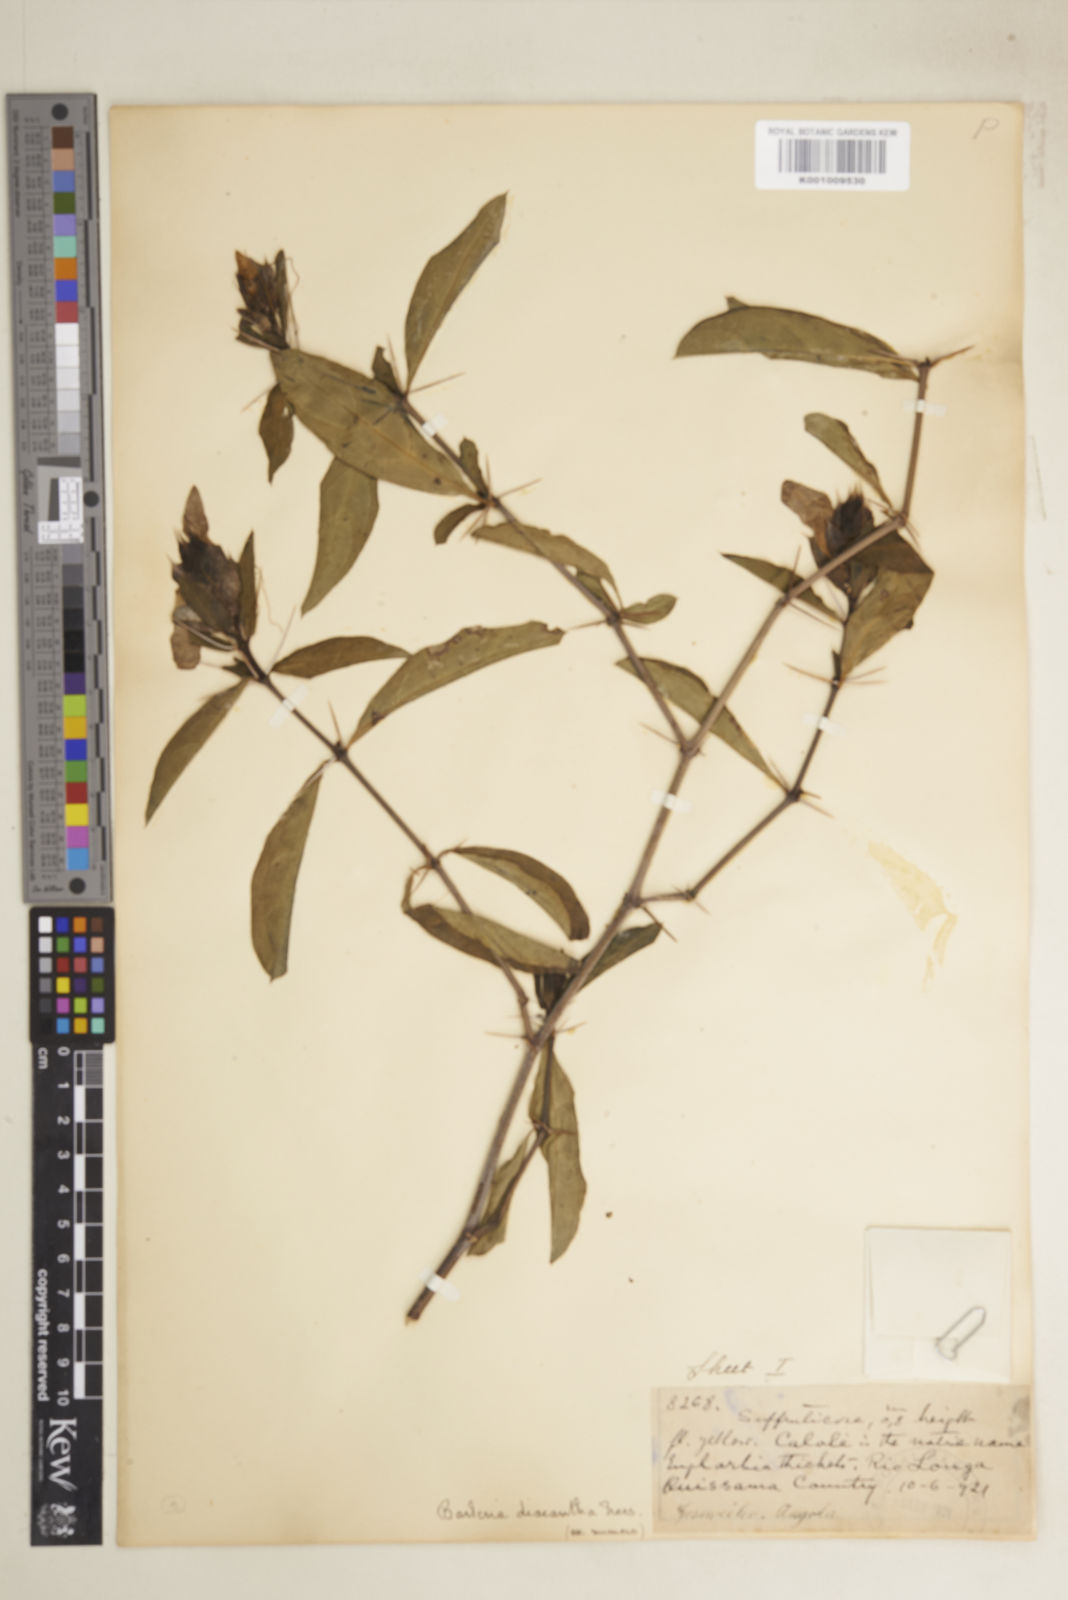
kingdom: Plantae
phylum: Tracheophyta
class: Magnoliopsida
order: Lamiales
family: Acanthaceae
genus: Barleria
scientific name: Barleria
